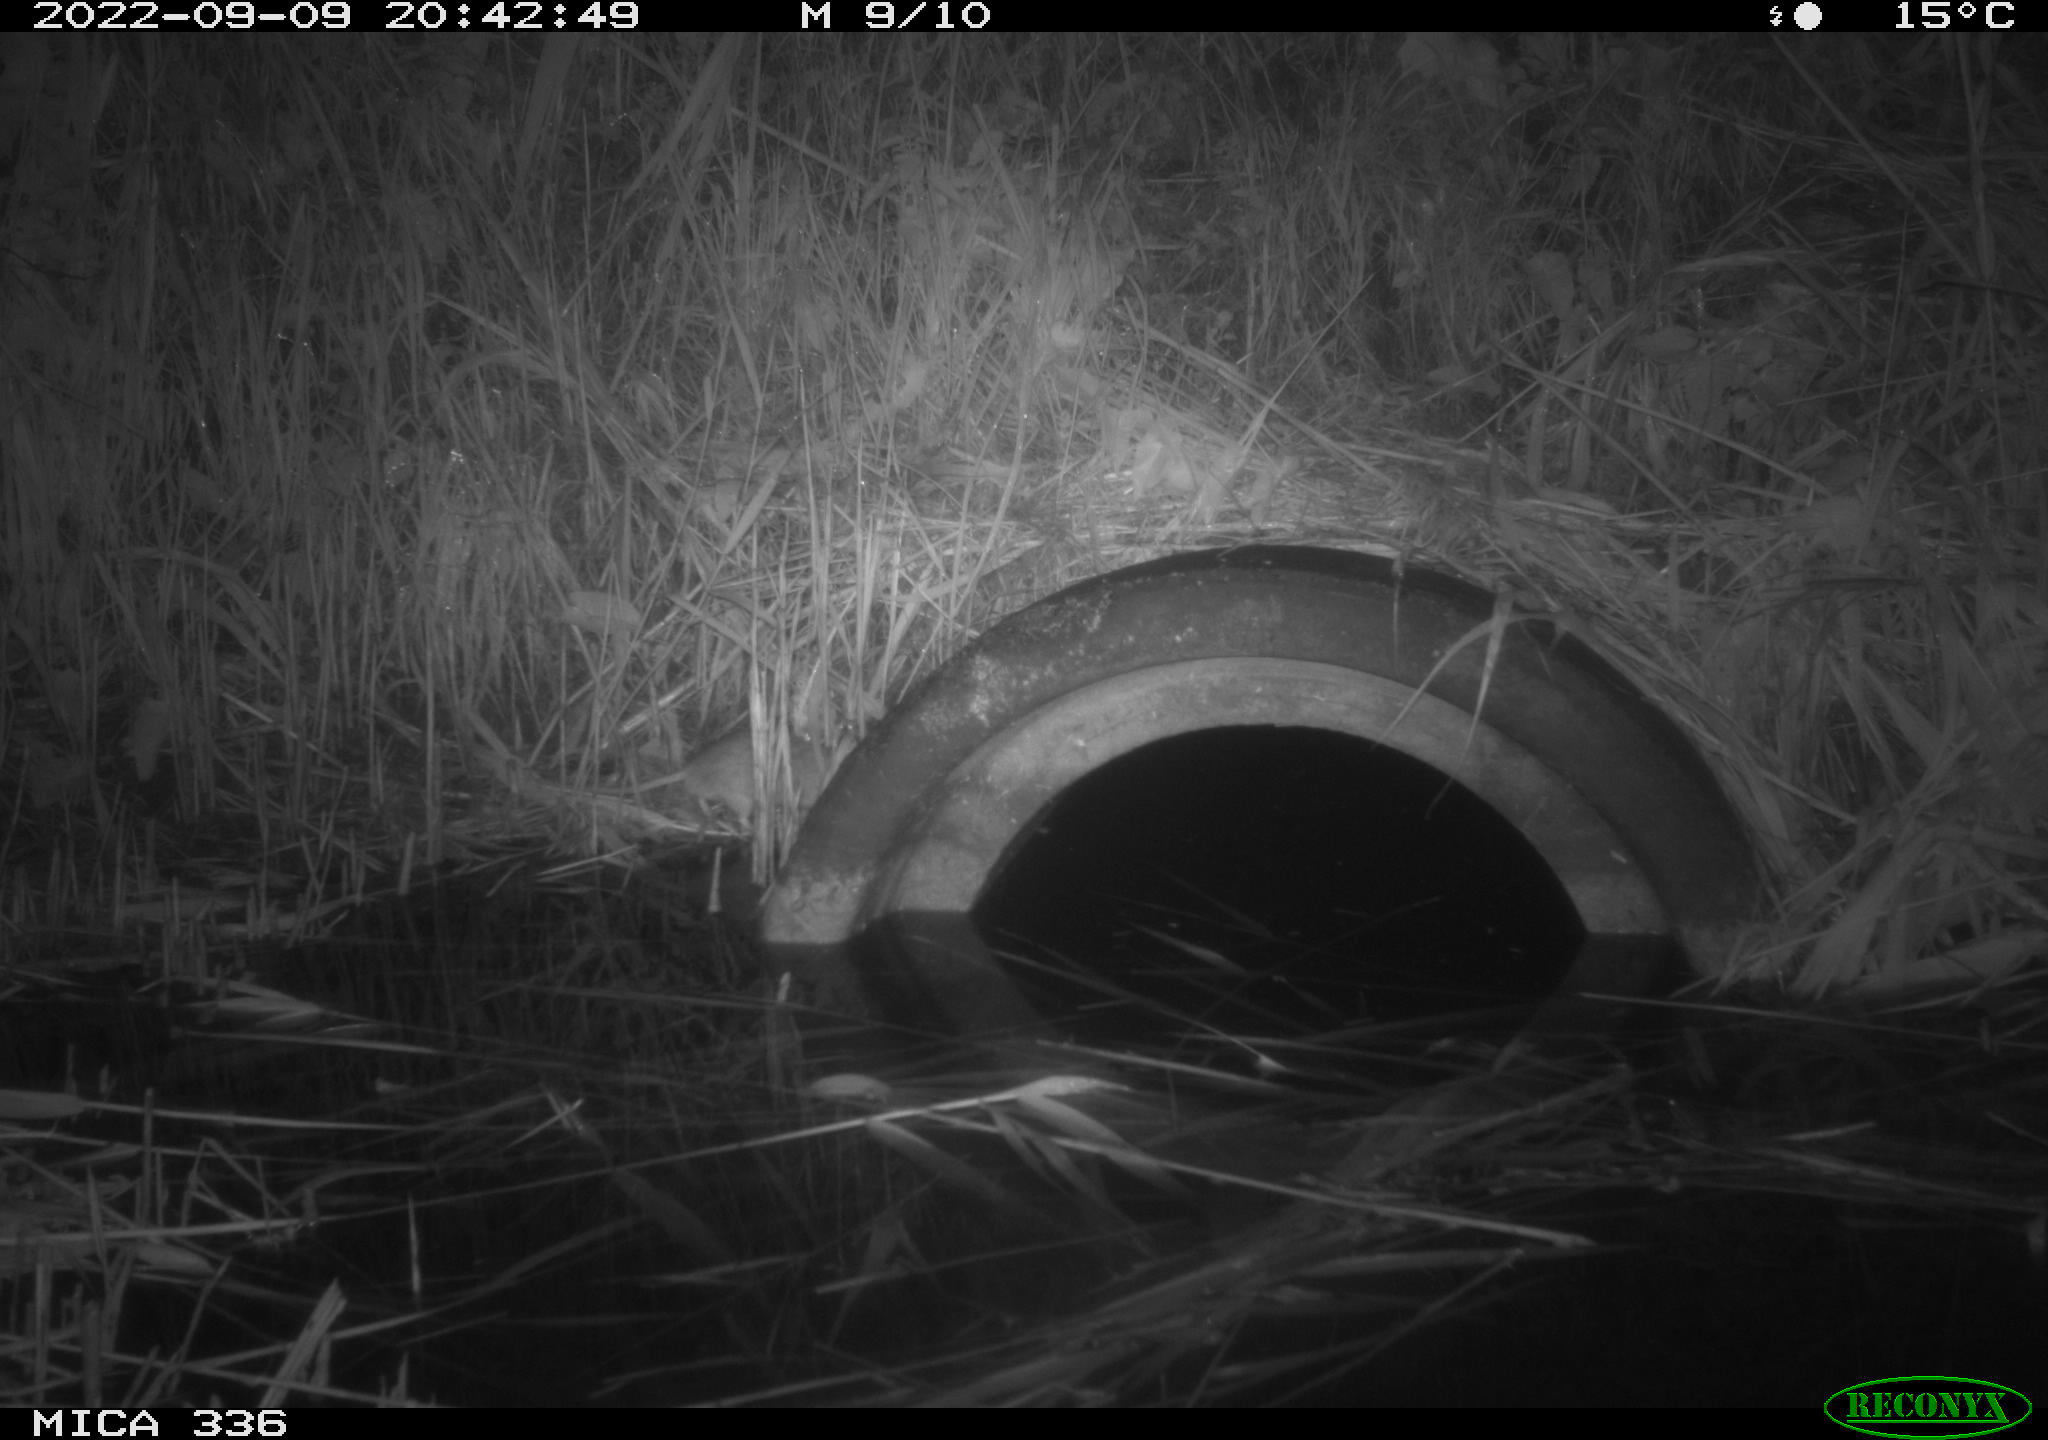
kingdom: Animalia
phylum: Chordata
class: Mammalia
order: Rodentia
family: Muridae
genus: Rattus
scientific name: Rattus norvegicus
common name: Brown rat
